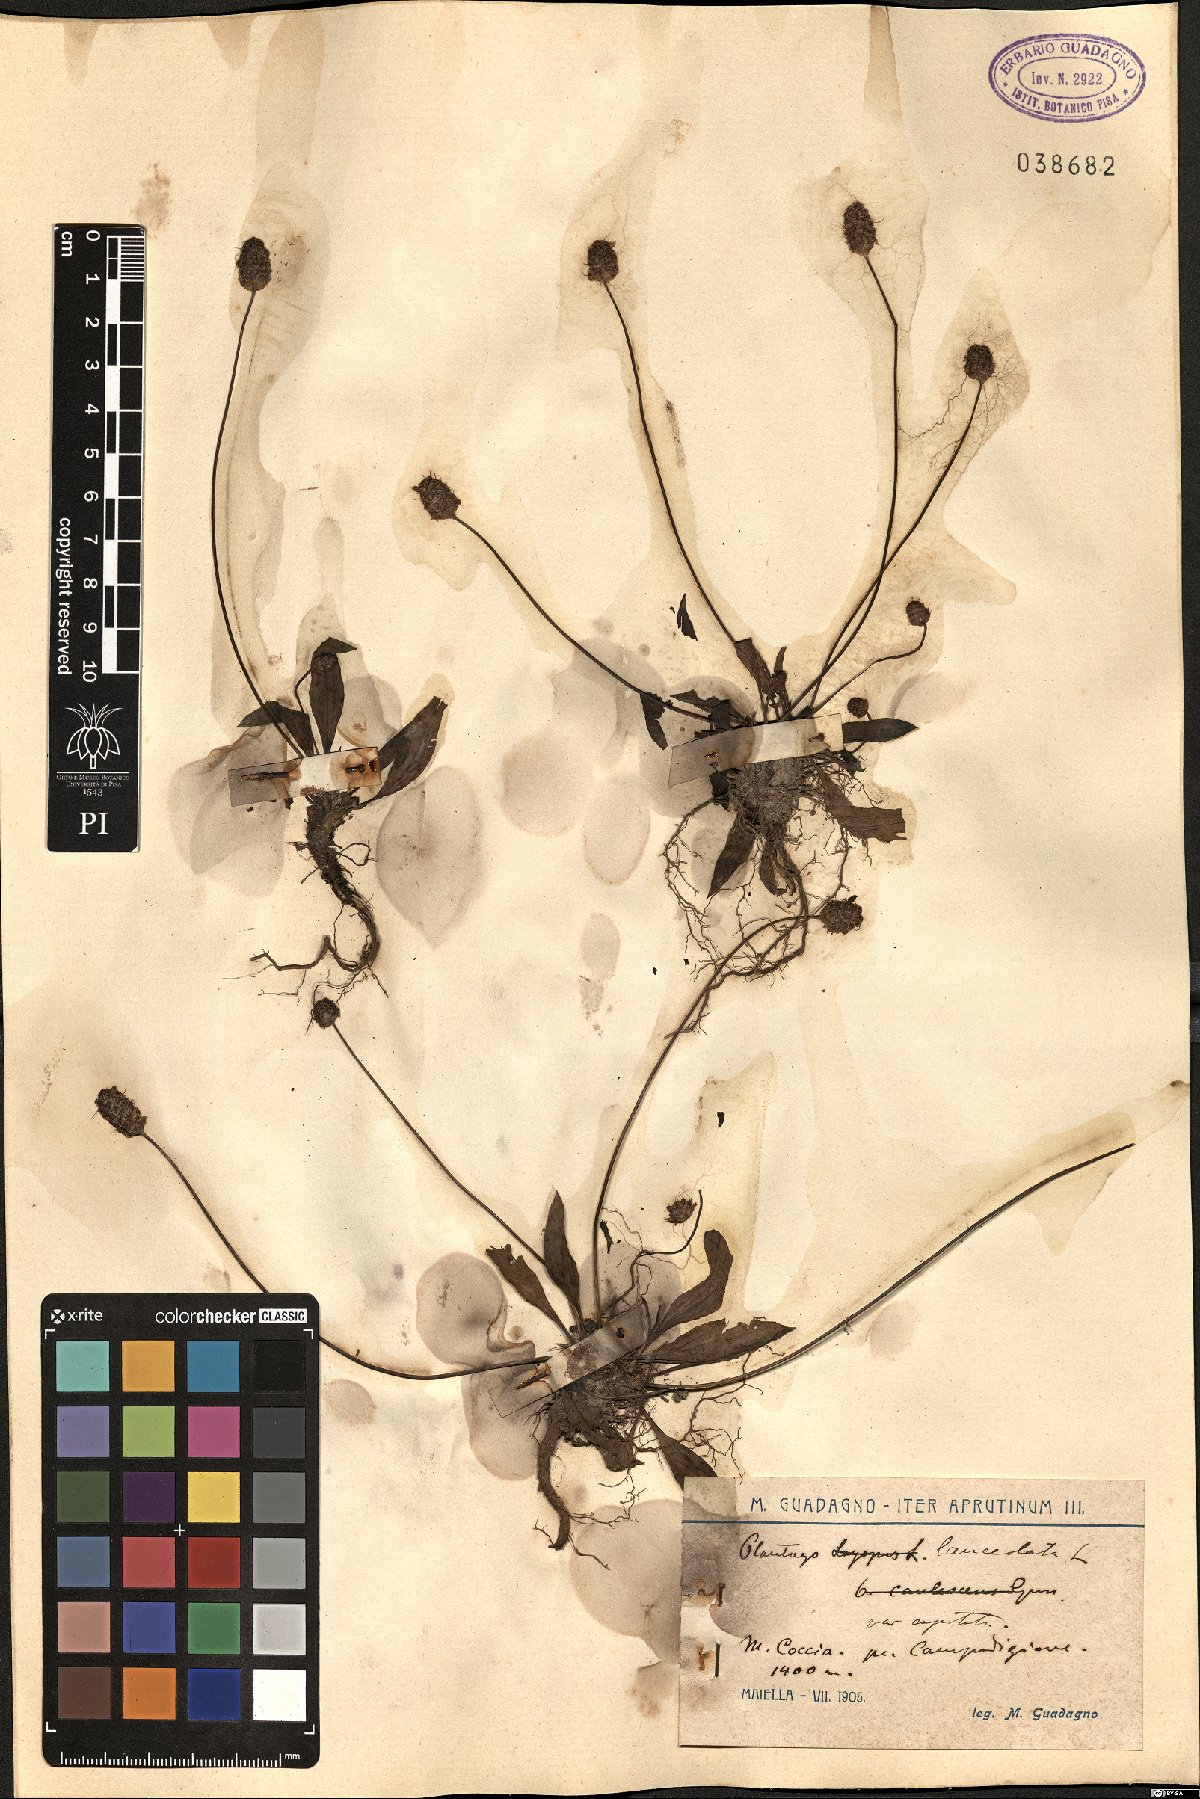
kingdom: Plantae
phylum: Tracheophyta
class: Magnoliopsida
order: Lamiales
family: Plantaginaceae
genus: Plantago
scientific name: Plantago lanceolata
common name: Ribwort plantain
